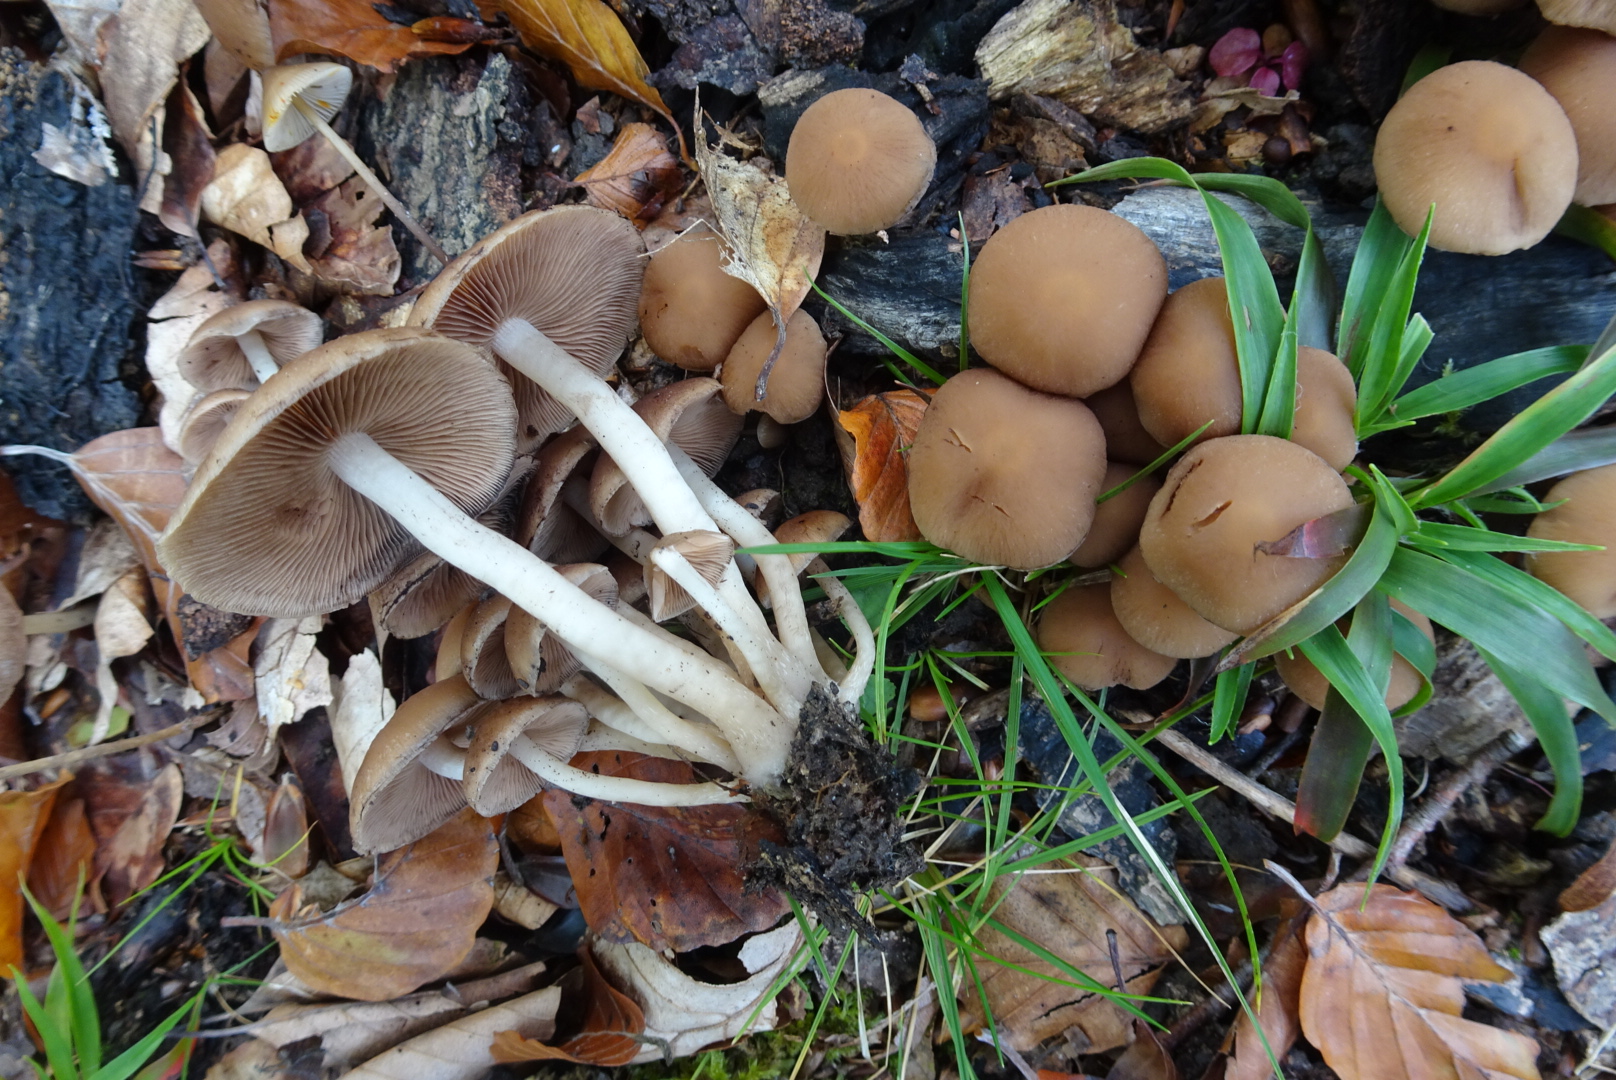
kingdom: Fungi
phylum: Basidiomycota
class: Agaricomycetes
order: Agaricales
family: Psathyrellaceae
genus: Psathyrella
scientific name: Psathyrella piluliformis
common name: lysstokket mørkhat
